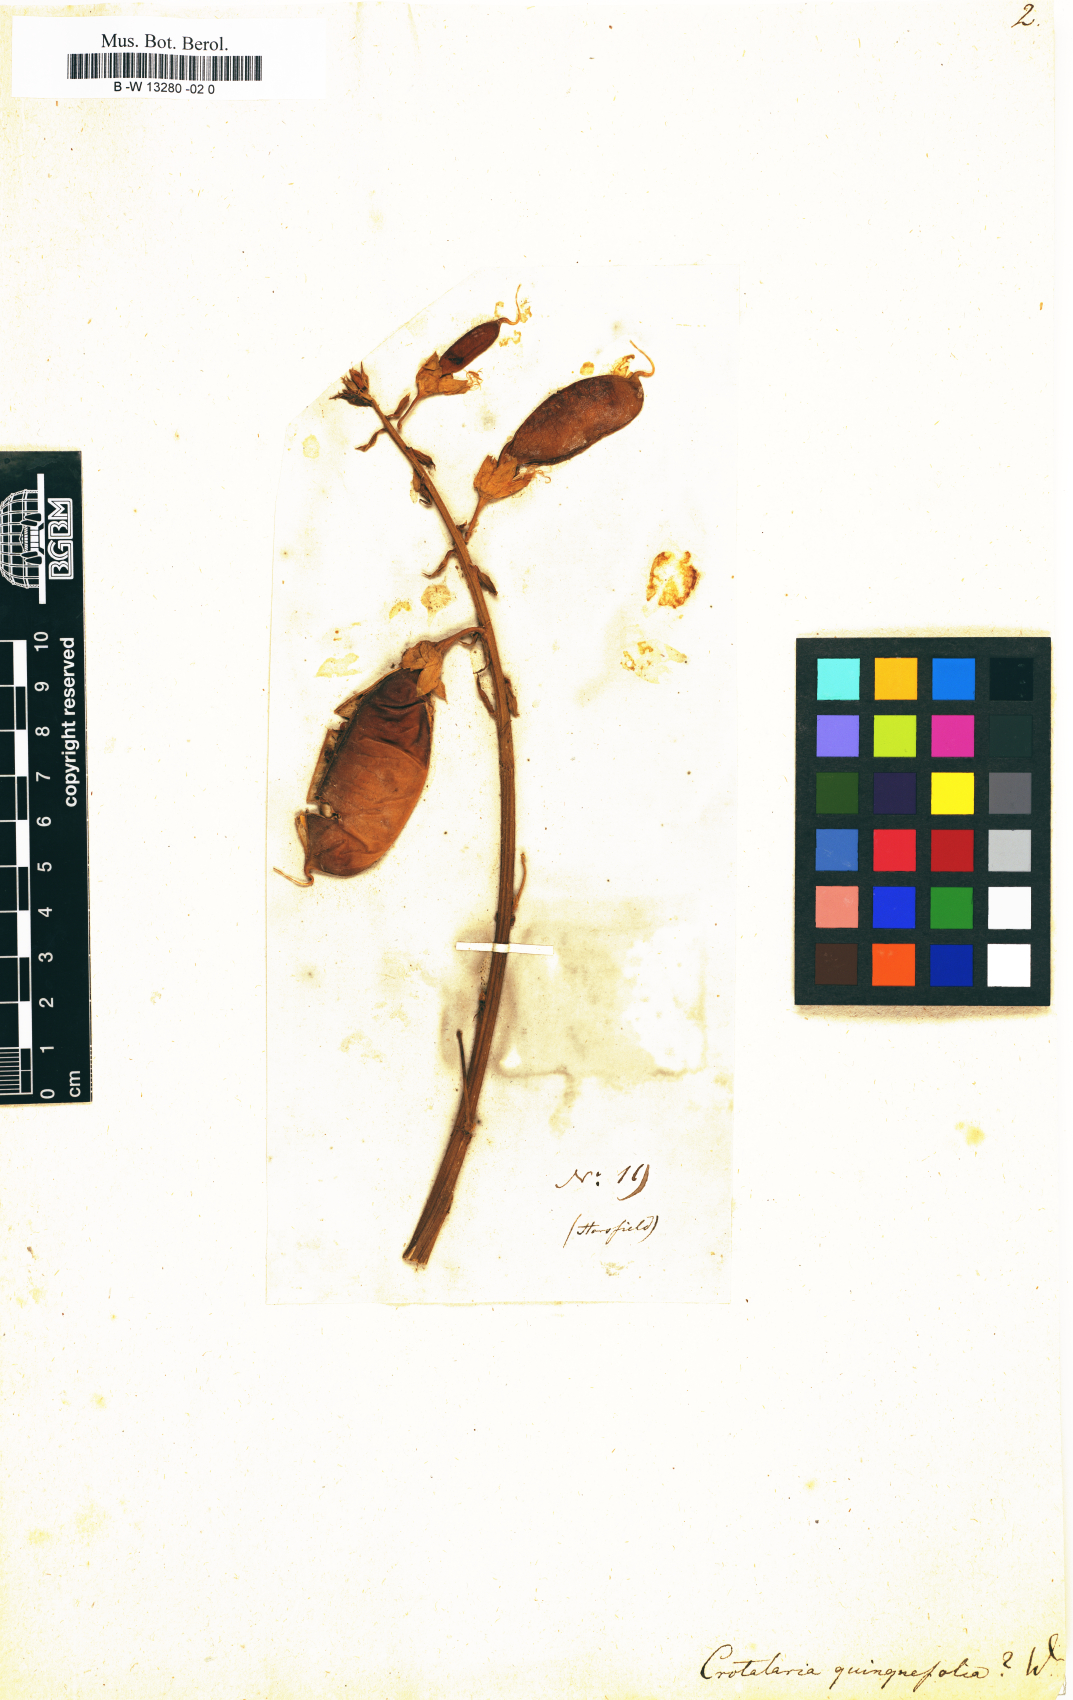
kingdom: Plantae
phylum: Tracheophyta
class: Magnoliopsida
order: Fabales
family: Fabaceae
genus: Crotalaria
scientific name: Crotalaria quinquefolia
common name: Five-leaf crotalaria
